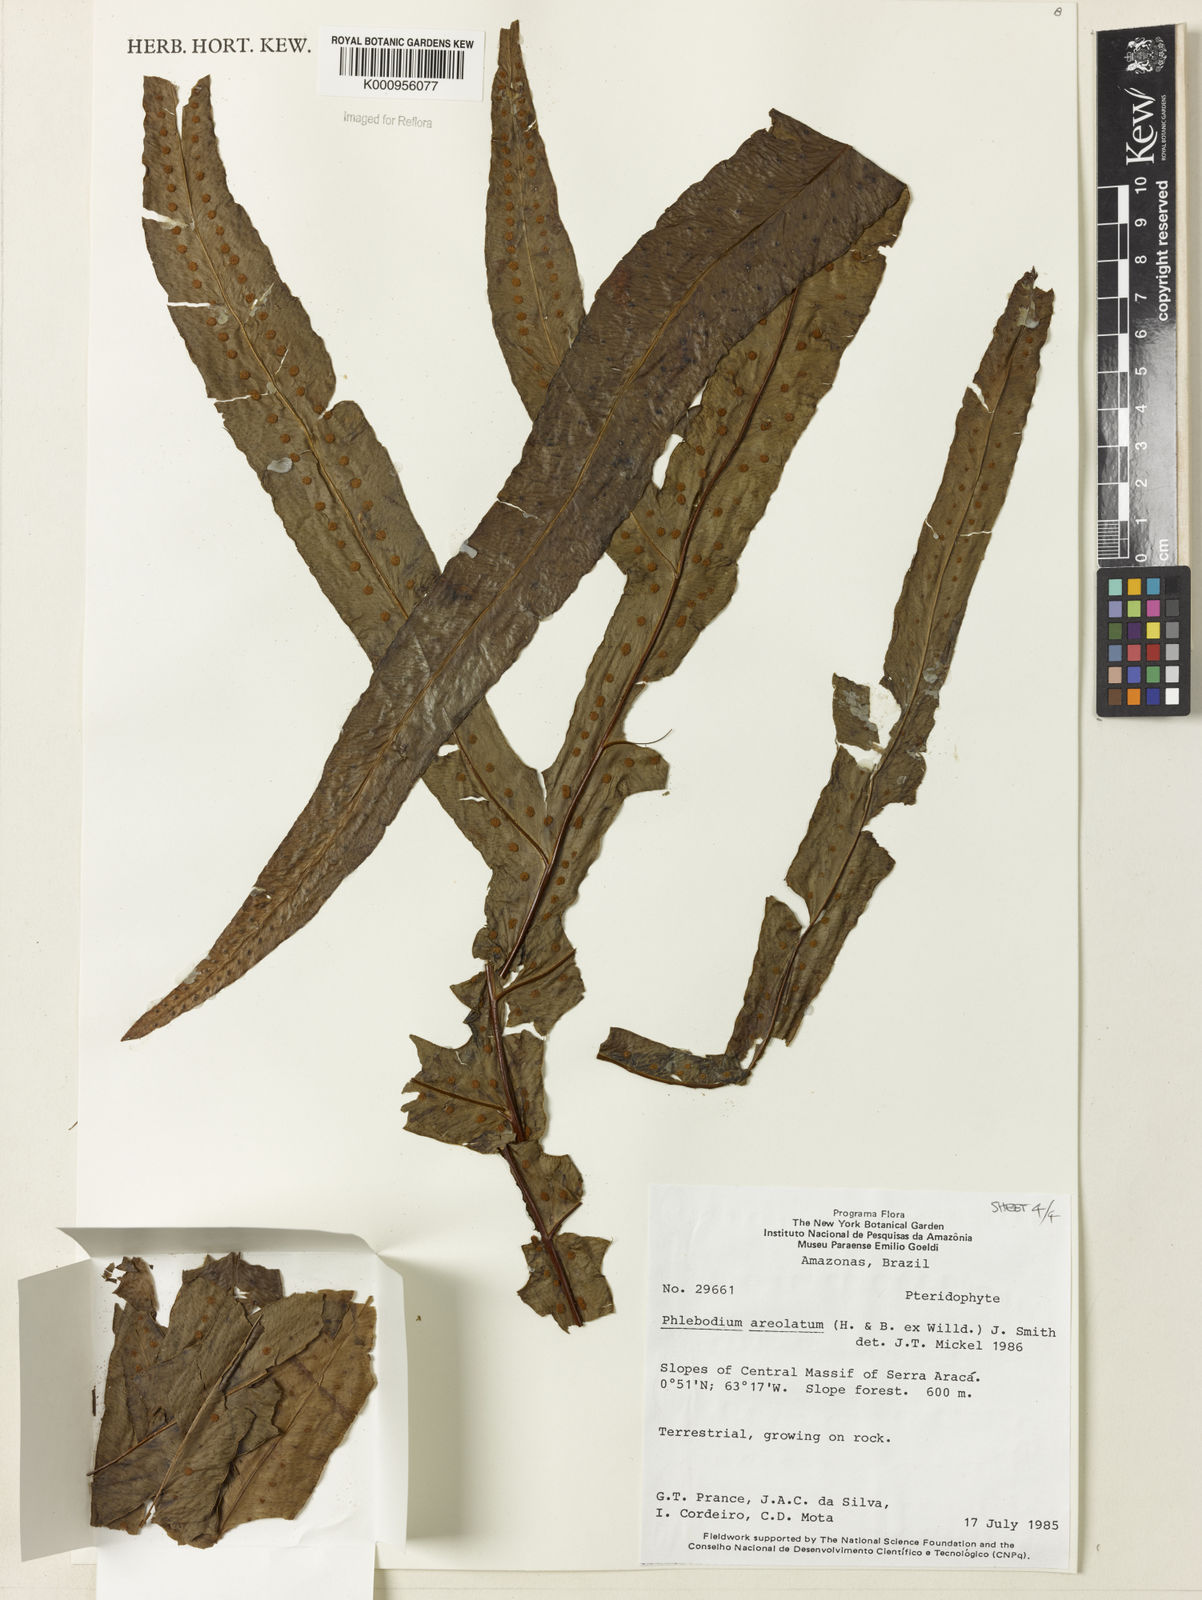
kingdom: Plantae
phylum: Tracheophyta
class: Polypodiopsida
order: Polypodiales
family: Polypodiaceae
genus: Phlebodium
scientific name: Phlebodium aureum
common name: Gold-foot fern
